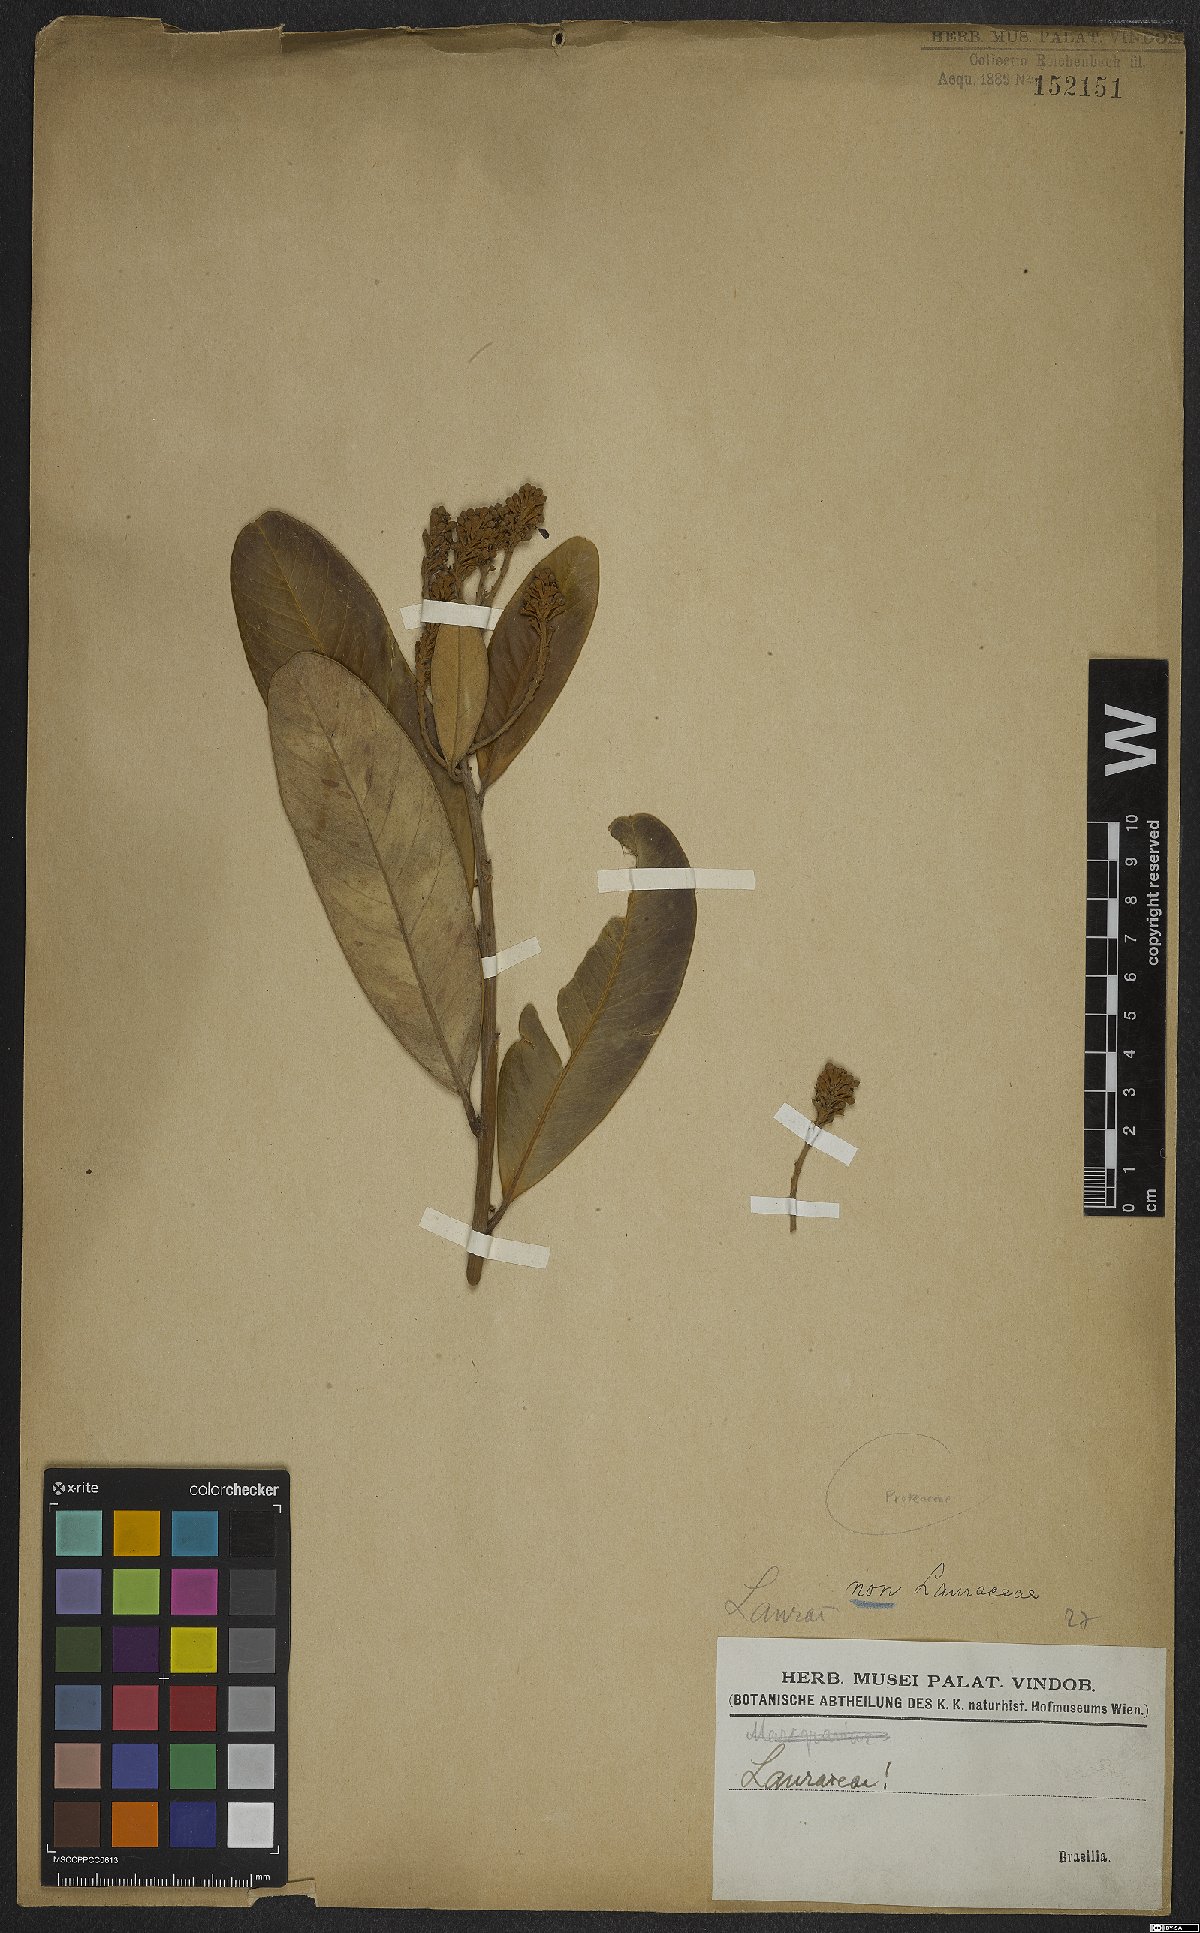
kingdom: Plantae
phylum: Tracheophyta
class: Magnoliopsida
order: Proteales
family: Proteaceae
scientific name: Proteaceae
